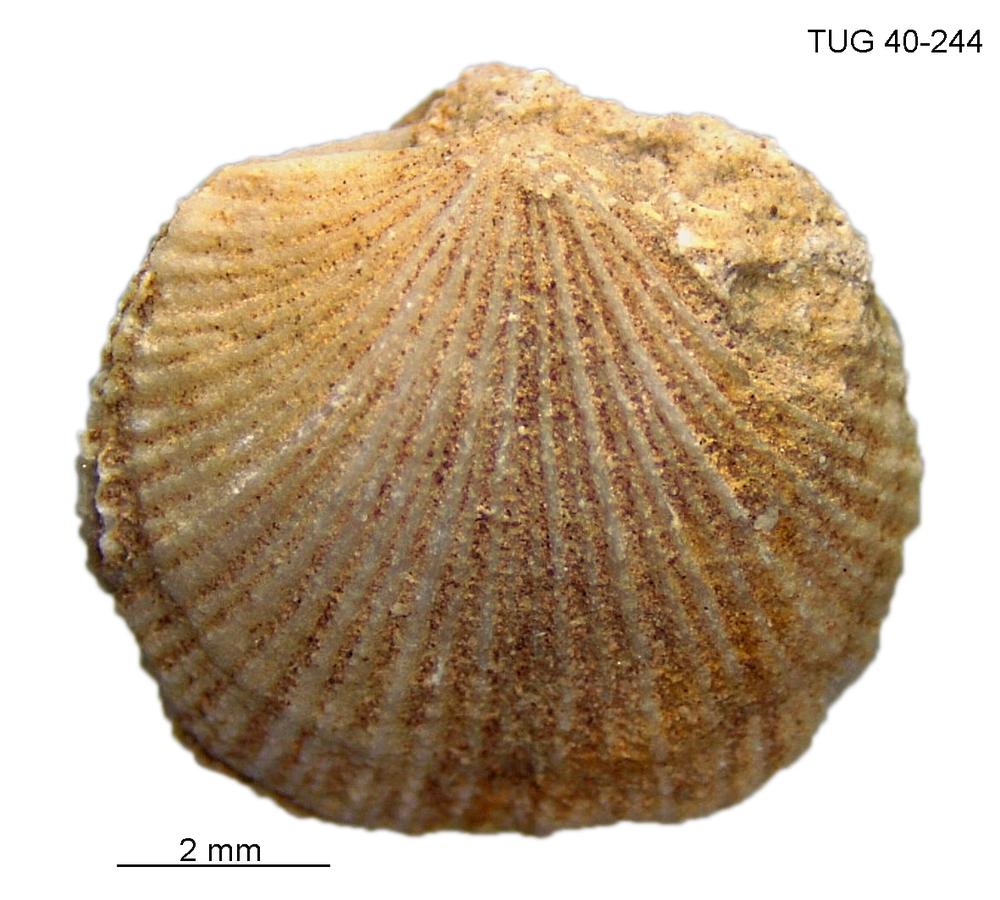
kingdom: Animalia
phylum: Brachiopoda
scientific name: Brachiopoda
